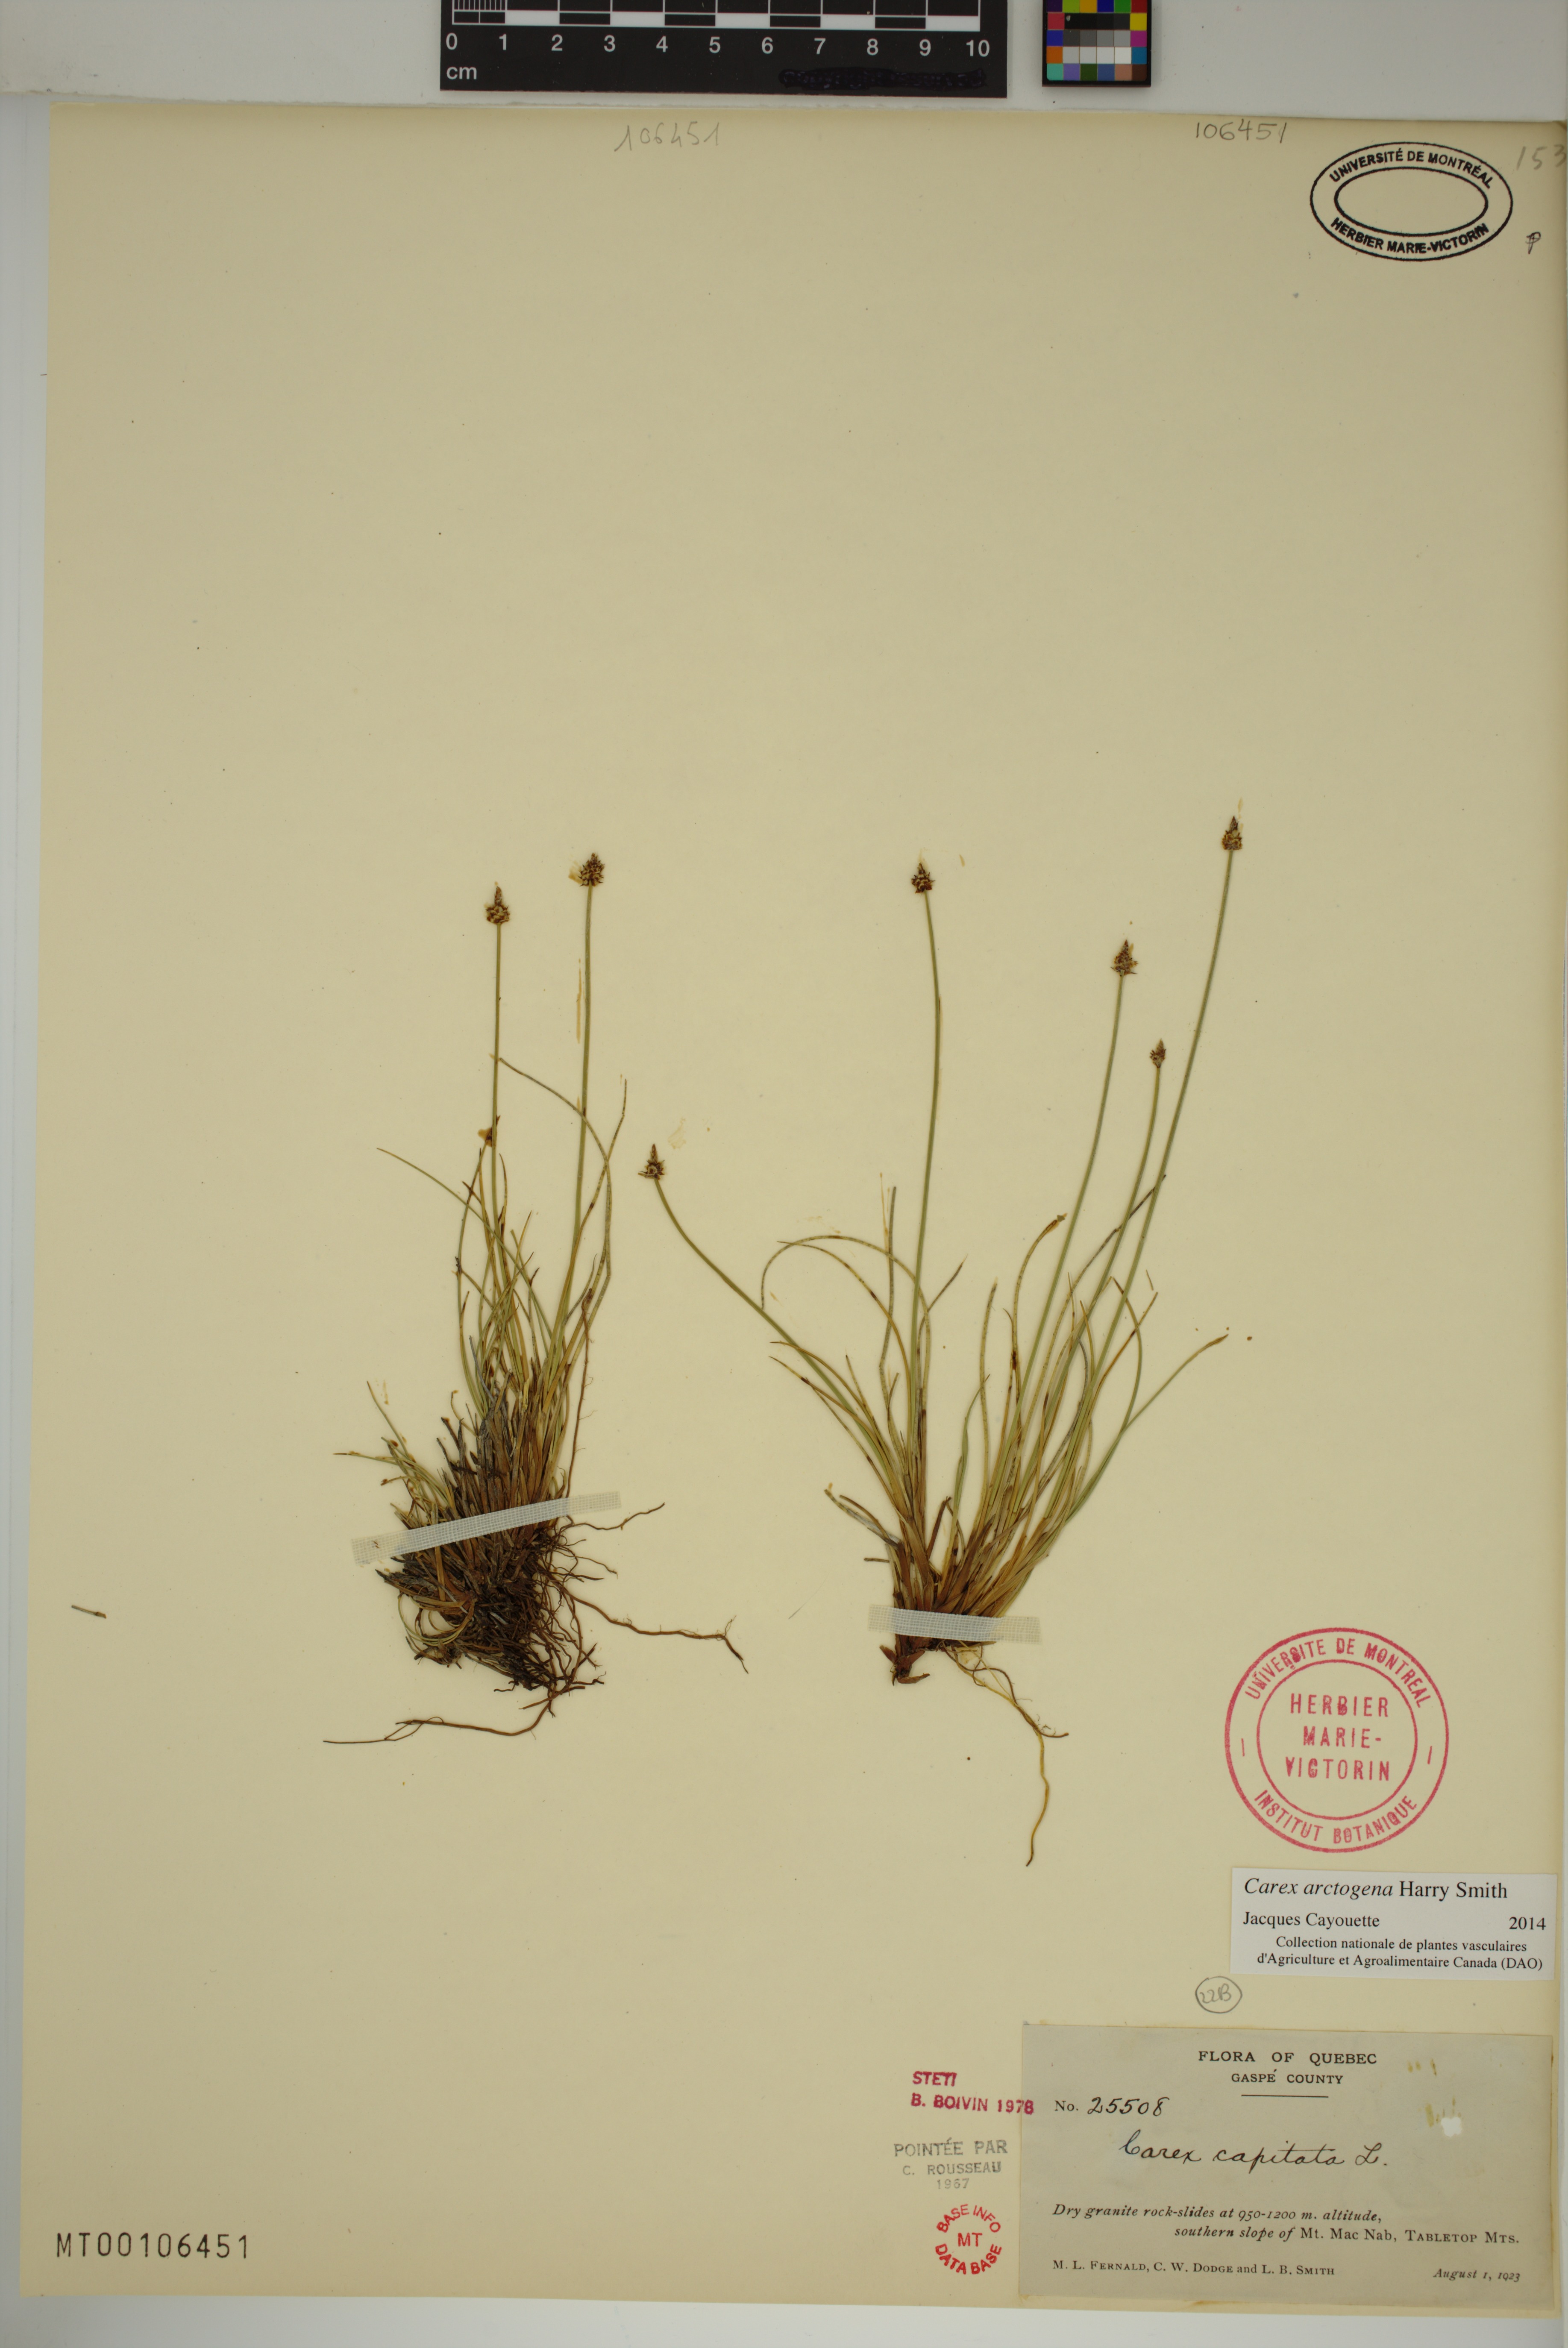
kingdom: Plantae
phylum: Tracheophyta
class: Liliopsida
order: Poales
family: Cyperaceae
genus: Carex
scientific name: Carex arctogena
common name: Black sedge
